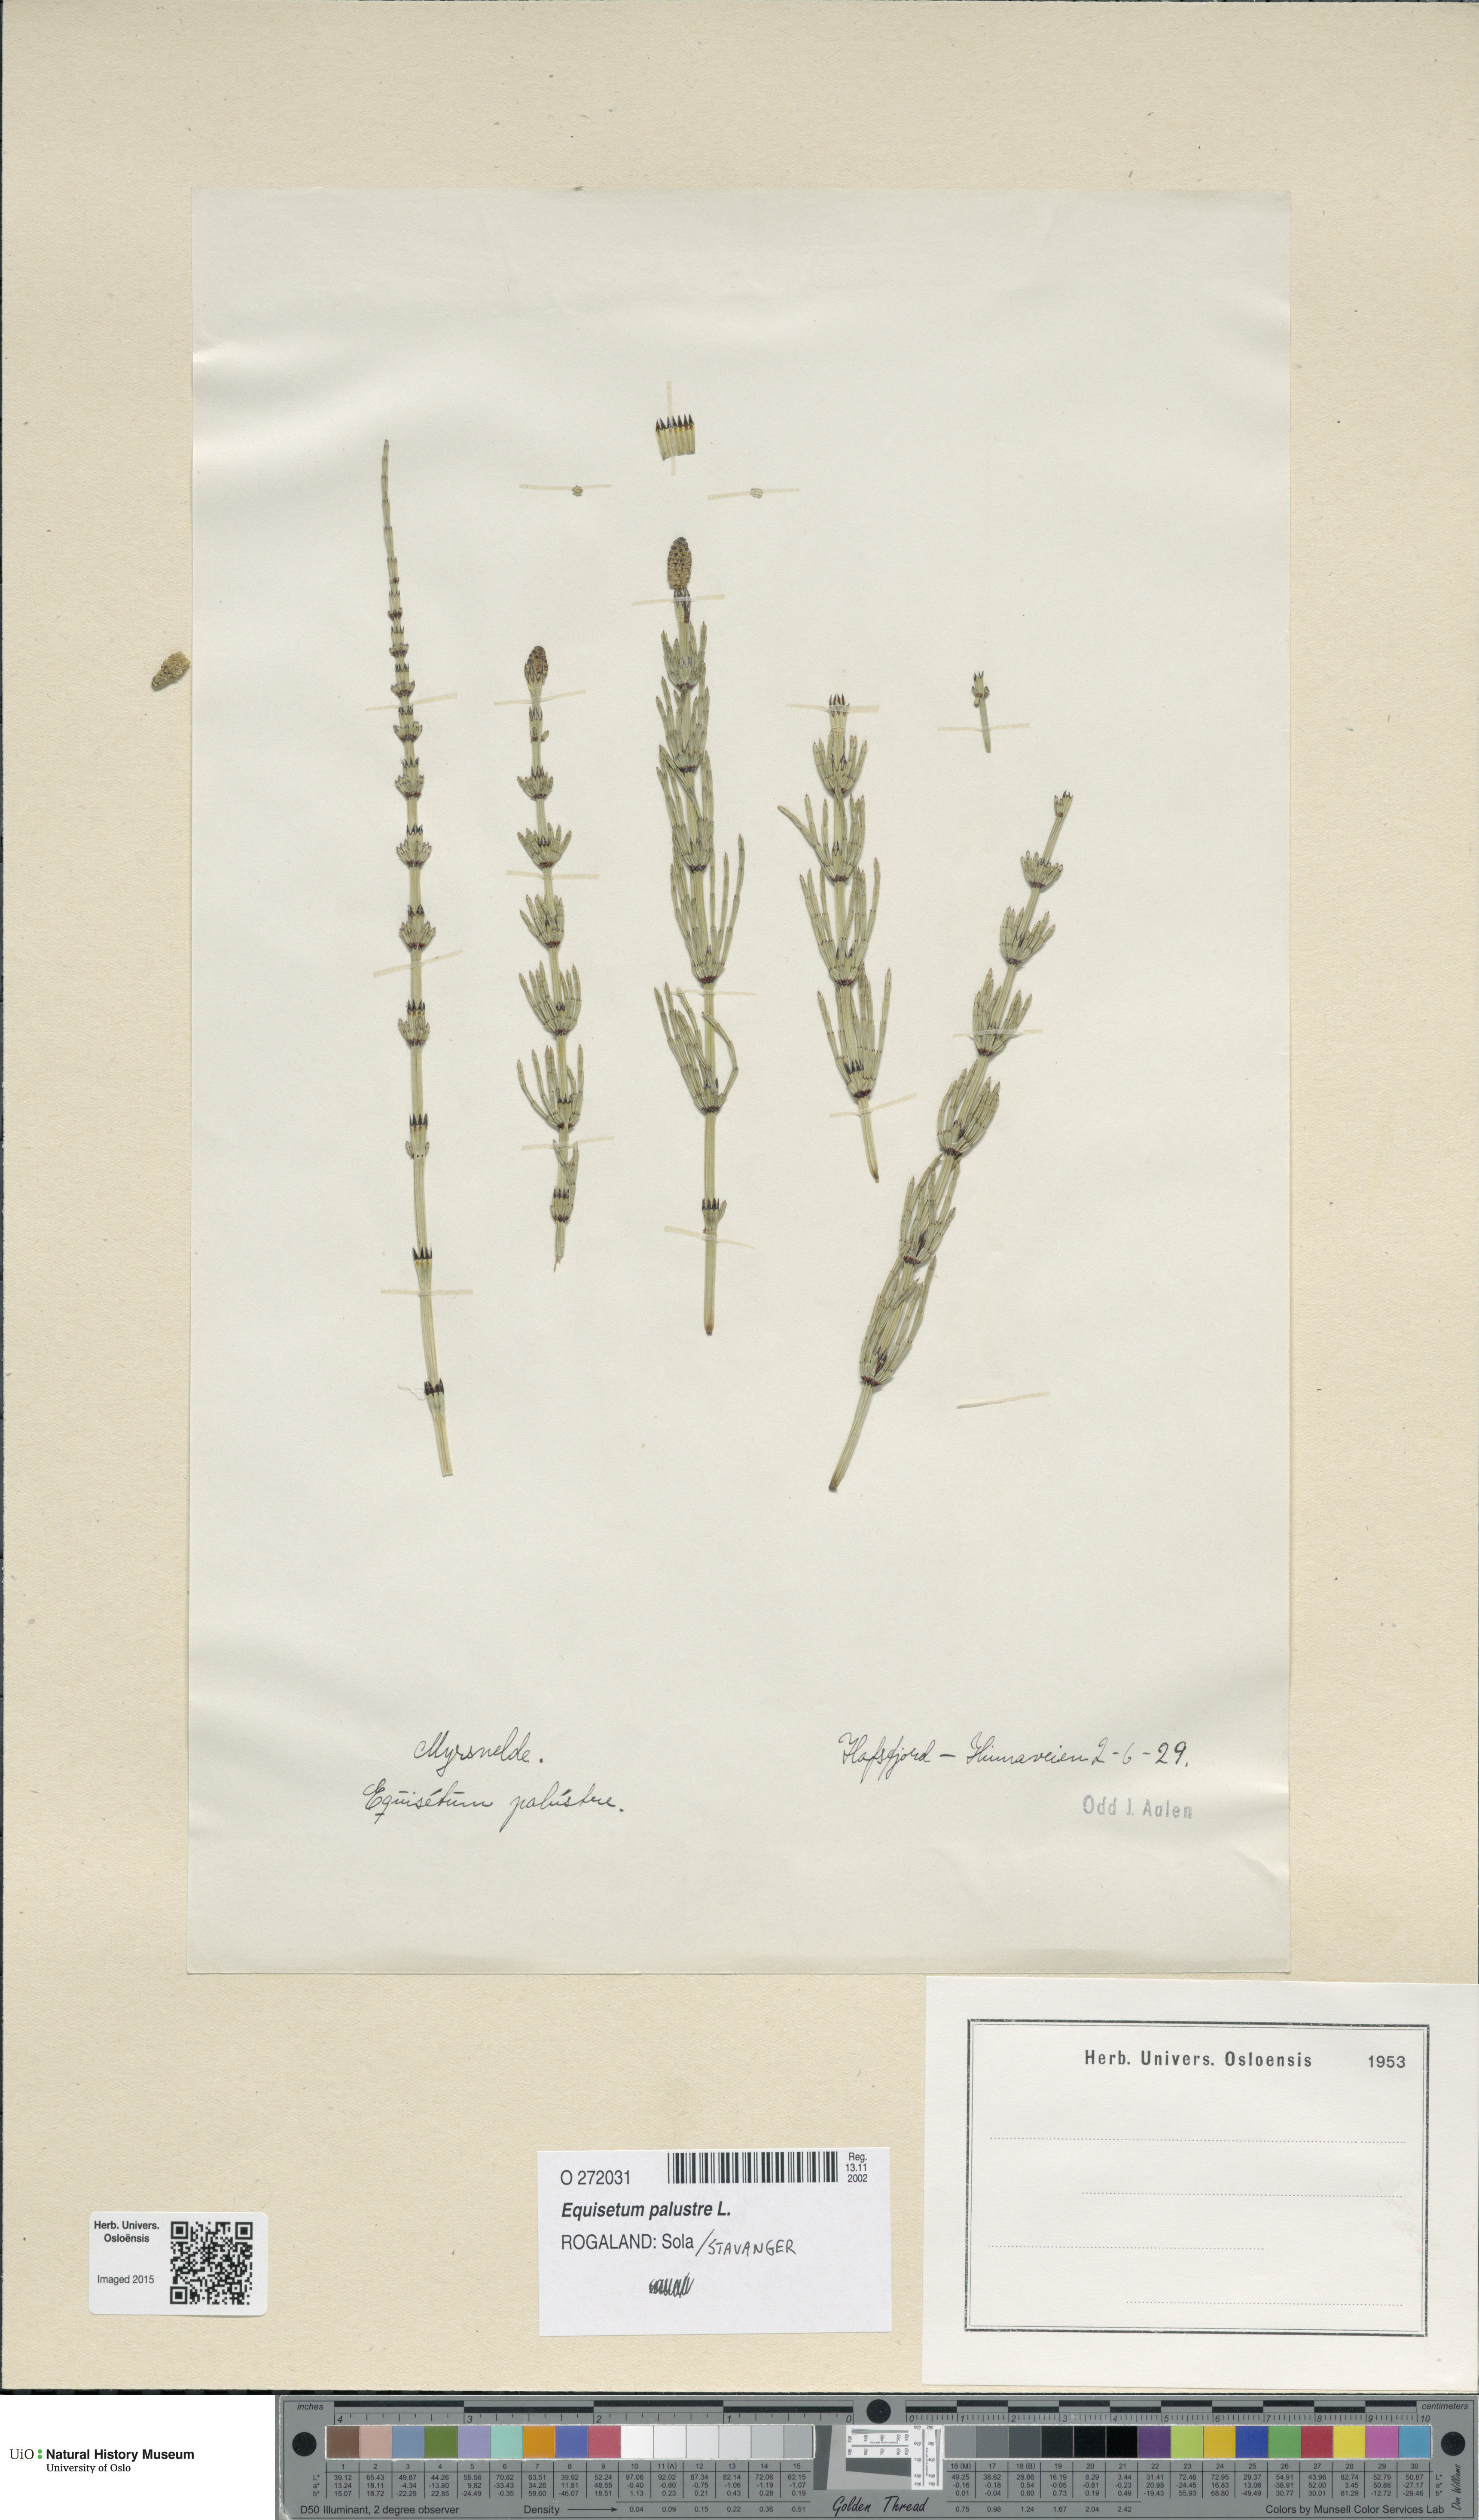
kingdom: Plantae
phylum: Tracheophyta
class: Polypodiopsida
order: Equisetales
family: Equisetaceae
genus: Equisetum
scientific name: Equisetum palustre
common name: Marsh horsetail
